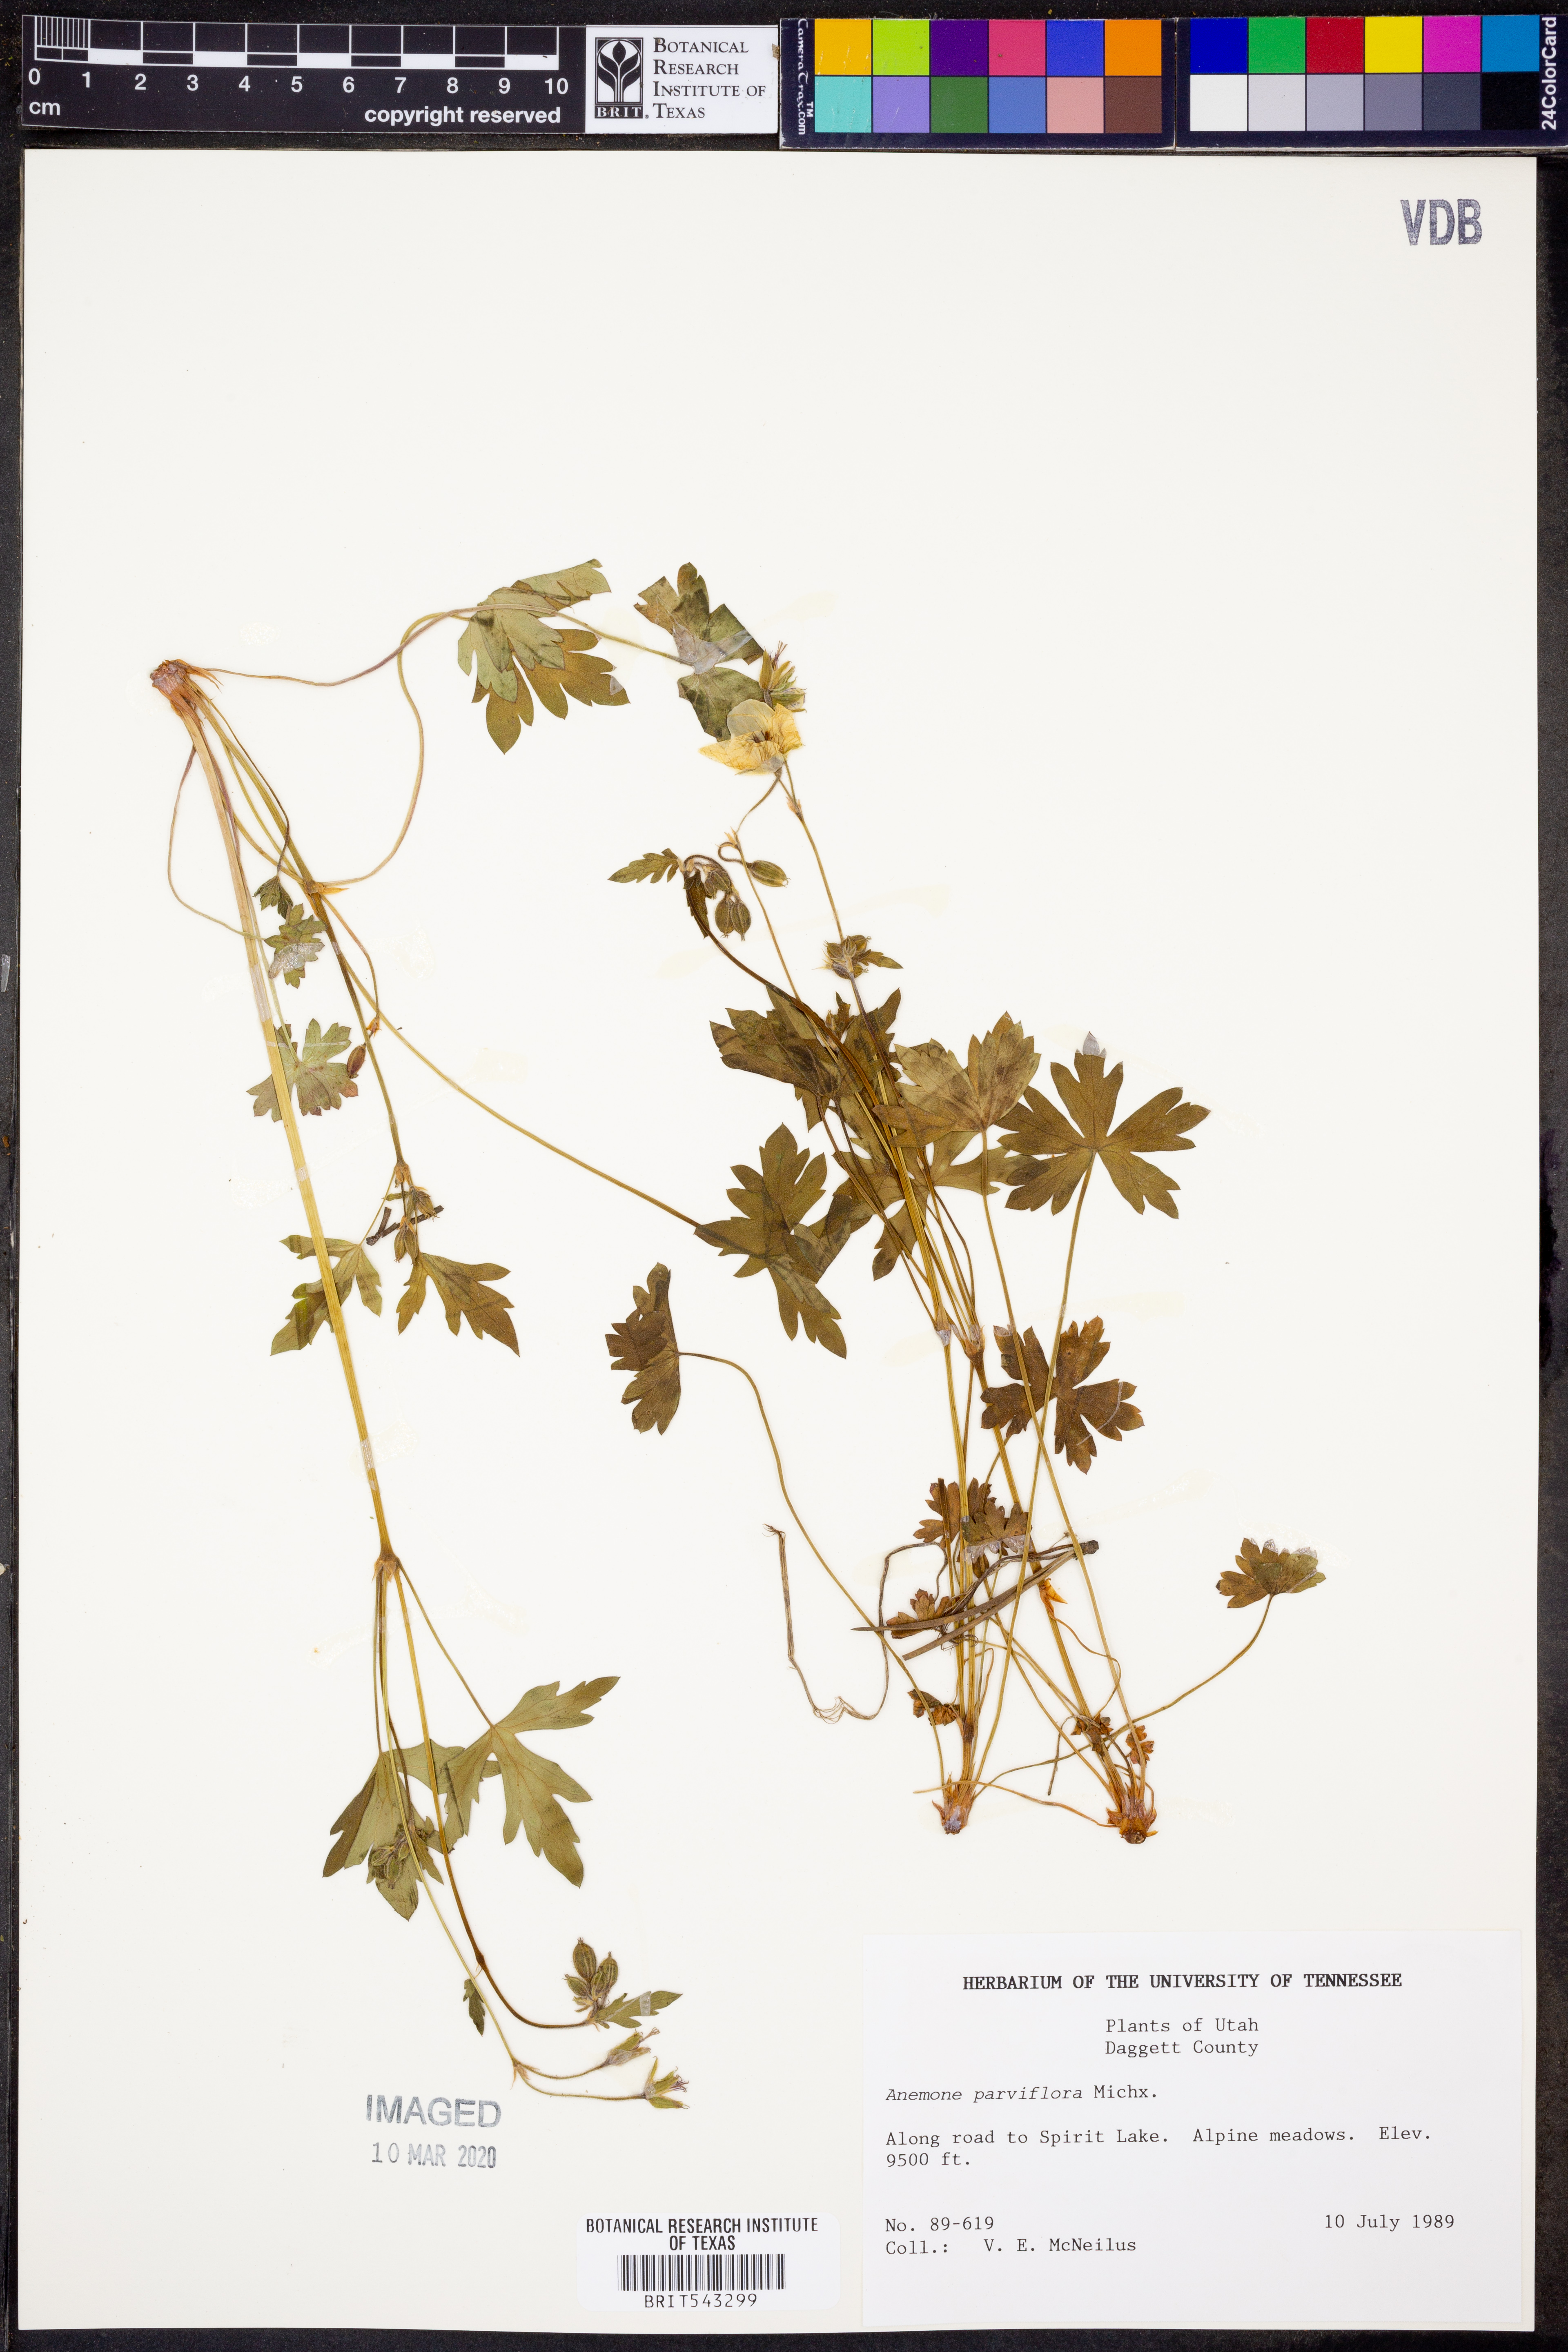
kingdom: Plantae
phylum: Tracheophyta
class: Magnoliopsida
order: Ranunculales
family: Ranunculaceae
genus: Anemone
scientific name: Anemone parviflora
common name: Northern anemone
